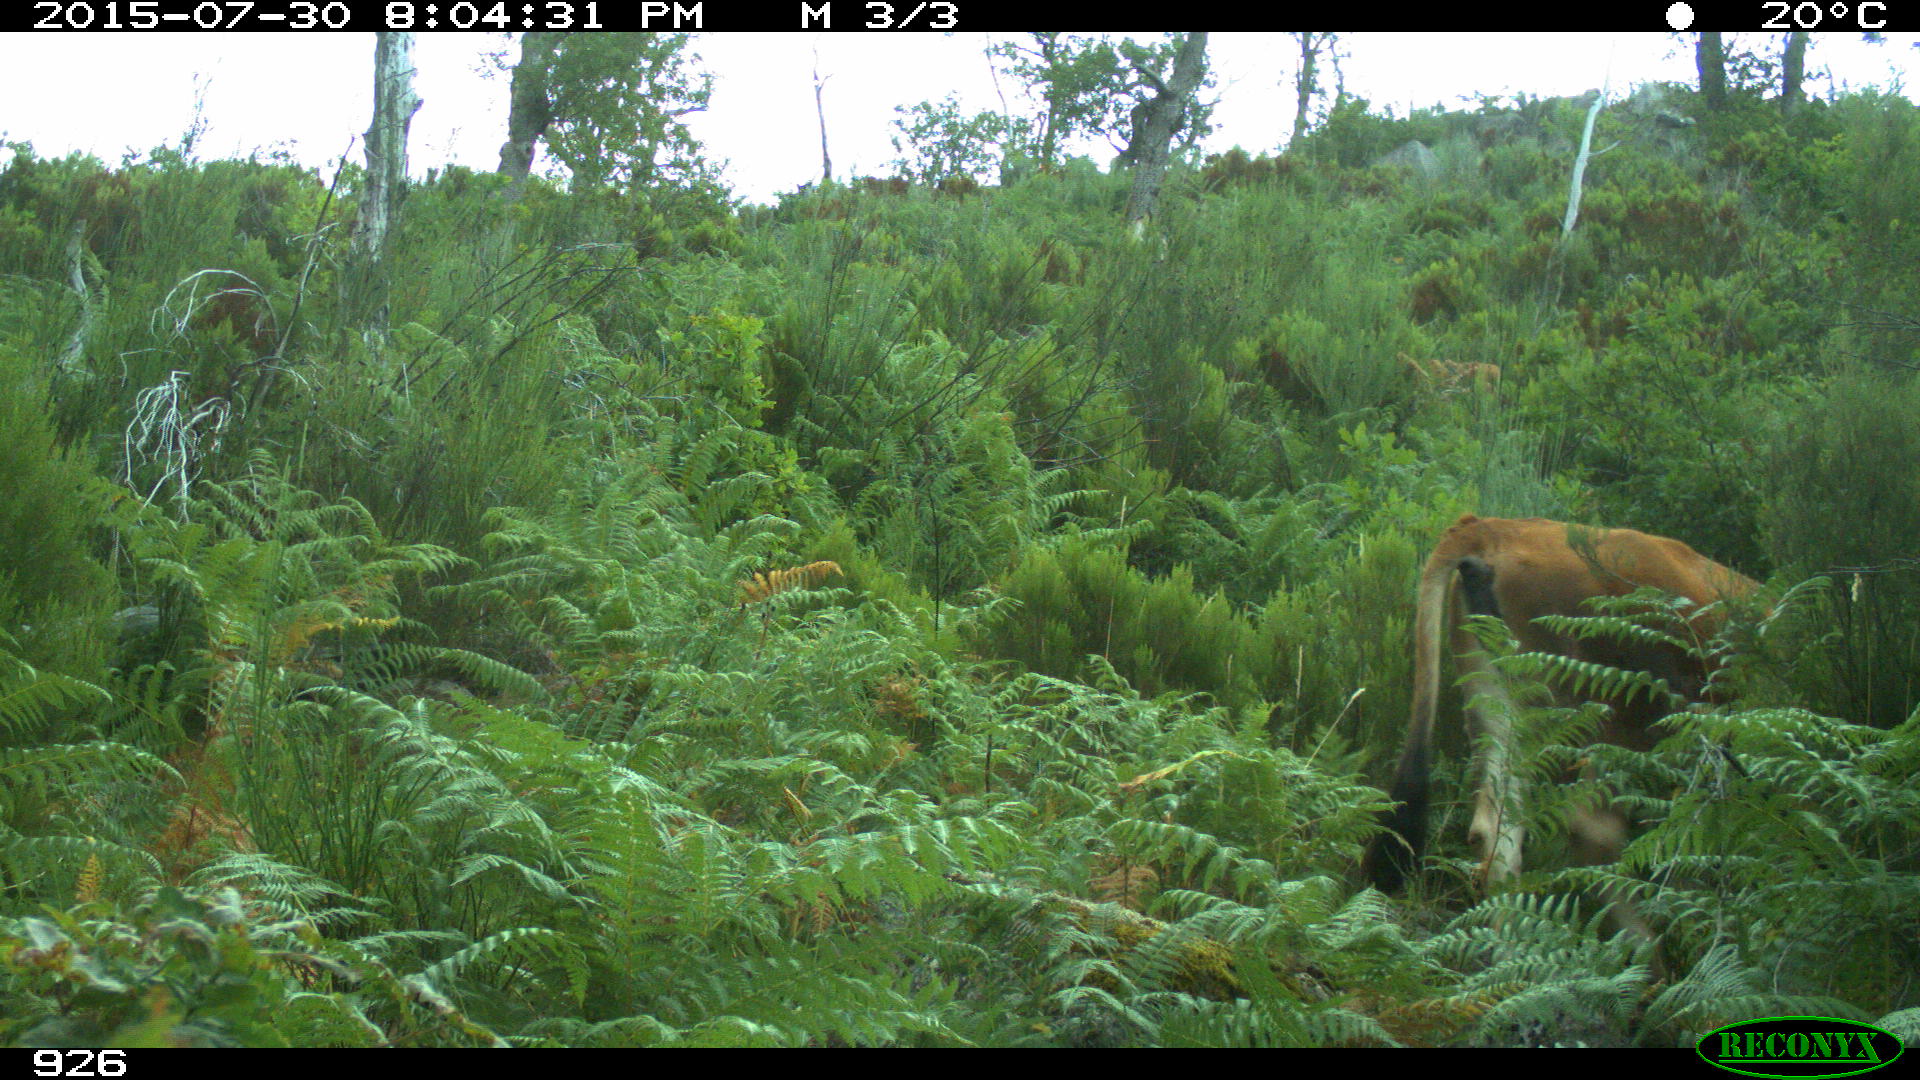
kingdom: Animalia
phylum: Chordata
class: Mammalia
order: Artiodactyla
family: Bovidae
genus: Bos
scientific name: Bos taurus
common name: Domesticated cattle
